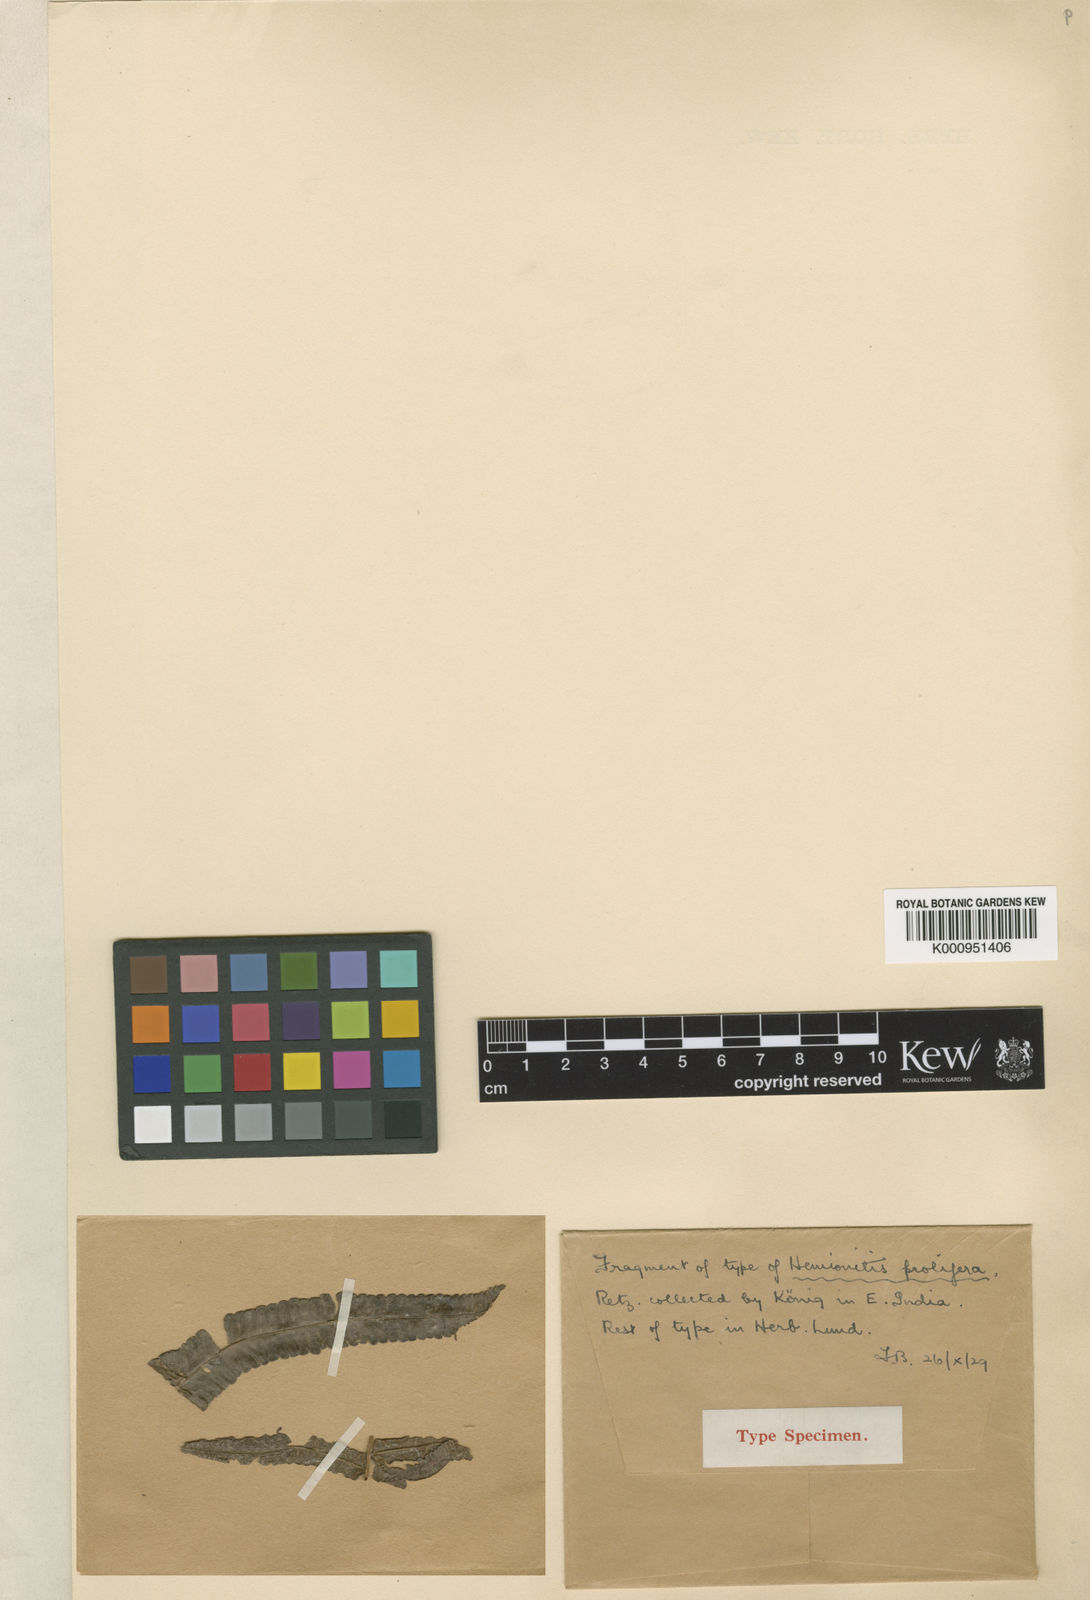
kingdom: Plantae
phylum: Tracheophyta
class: Polypodiopsida
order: Polypodiales
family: Thelypteridaceae
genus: Ampelopteris
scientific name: Ampelopteris prolifera
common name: Riverine scrambler
